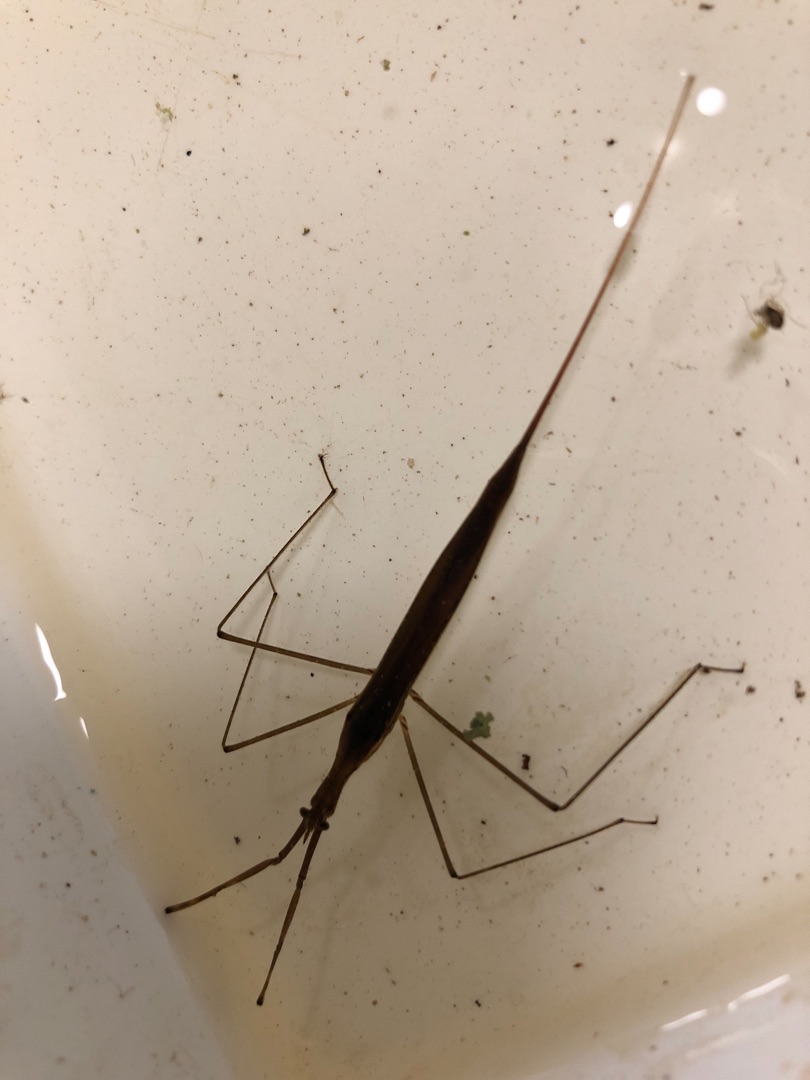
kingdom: Animalia
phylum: Arthropoda
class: Insecta
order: Hemiptera
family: Nepidae
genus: Ranatra
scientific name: Ranatra linearis
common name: Stavtæge
